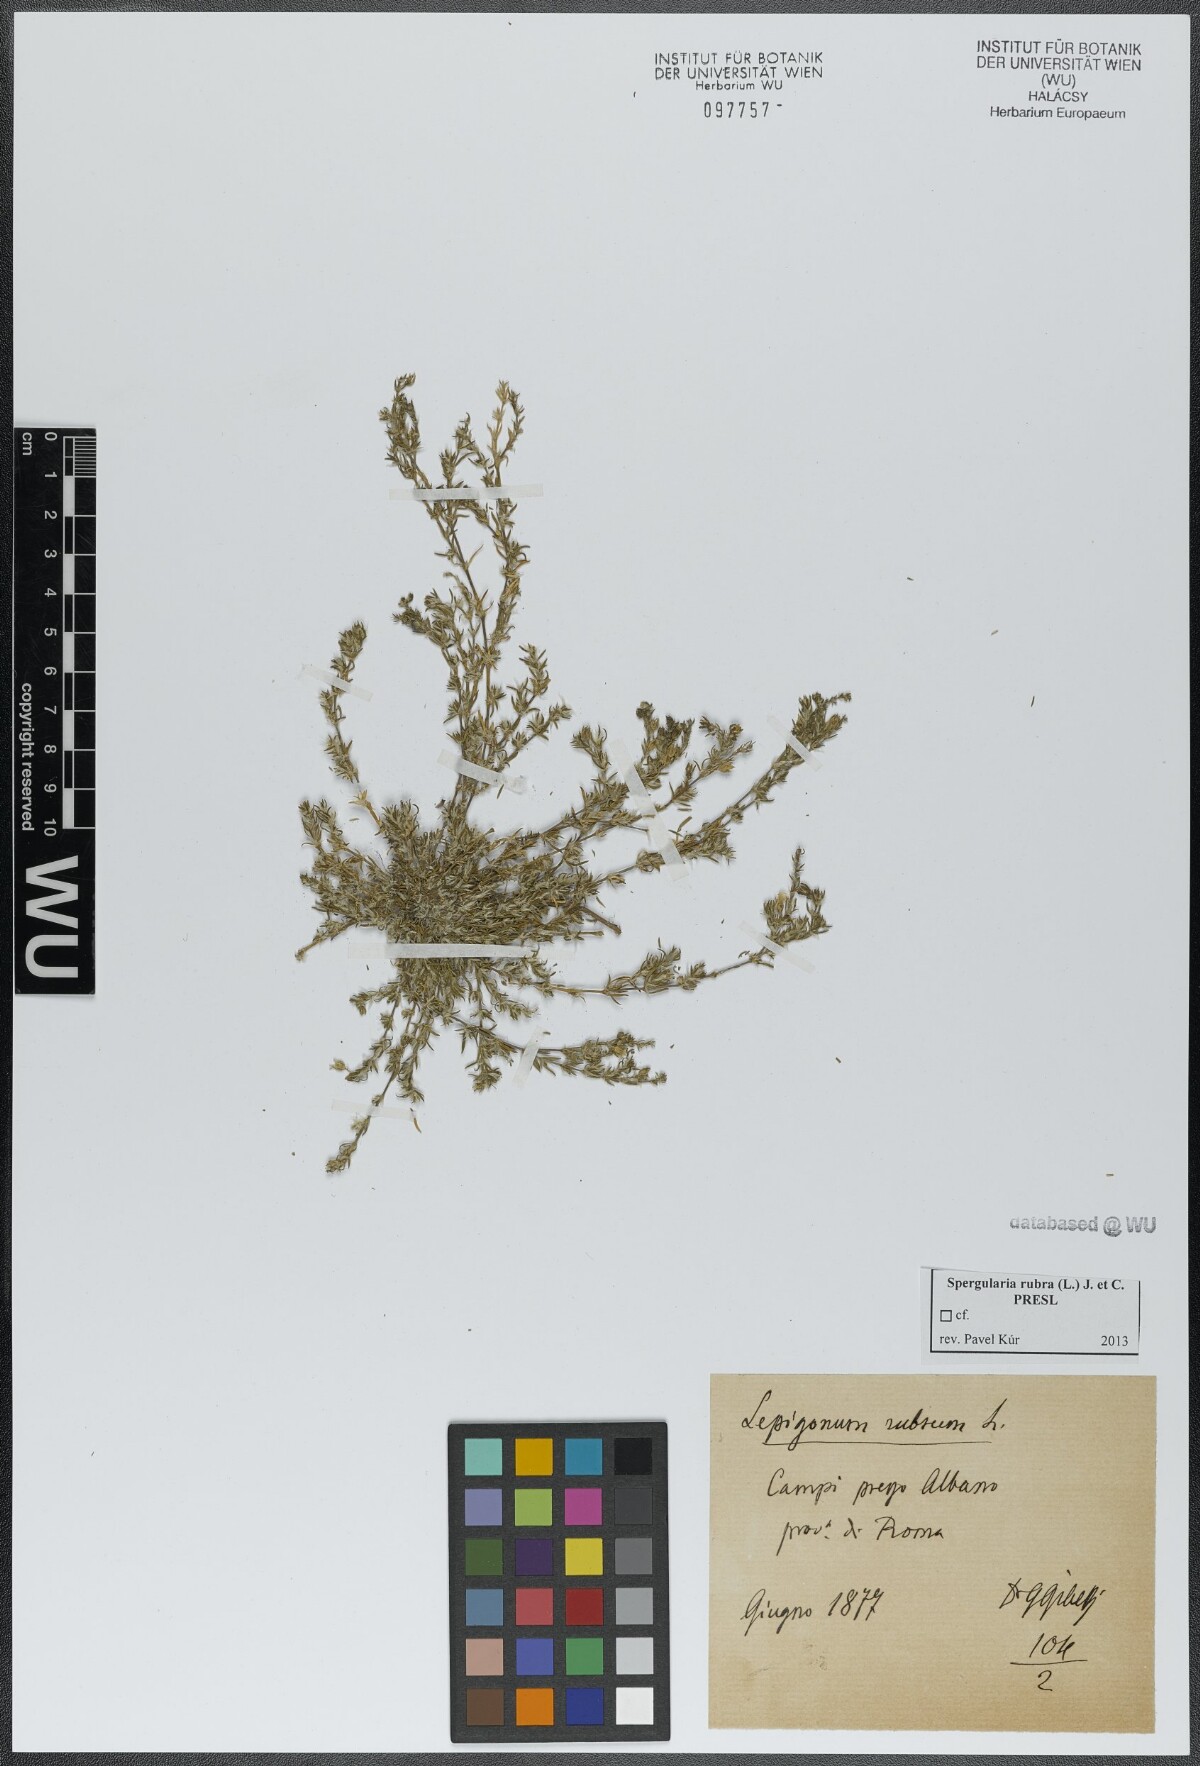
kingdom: Plantae
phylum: Tracheophyta
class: Magnoliopsida
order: Caryophyllales
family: Caryophyllaceae
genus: Spergularia
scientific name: Spergularia rubra
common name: Red sand-spurrey
